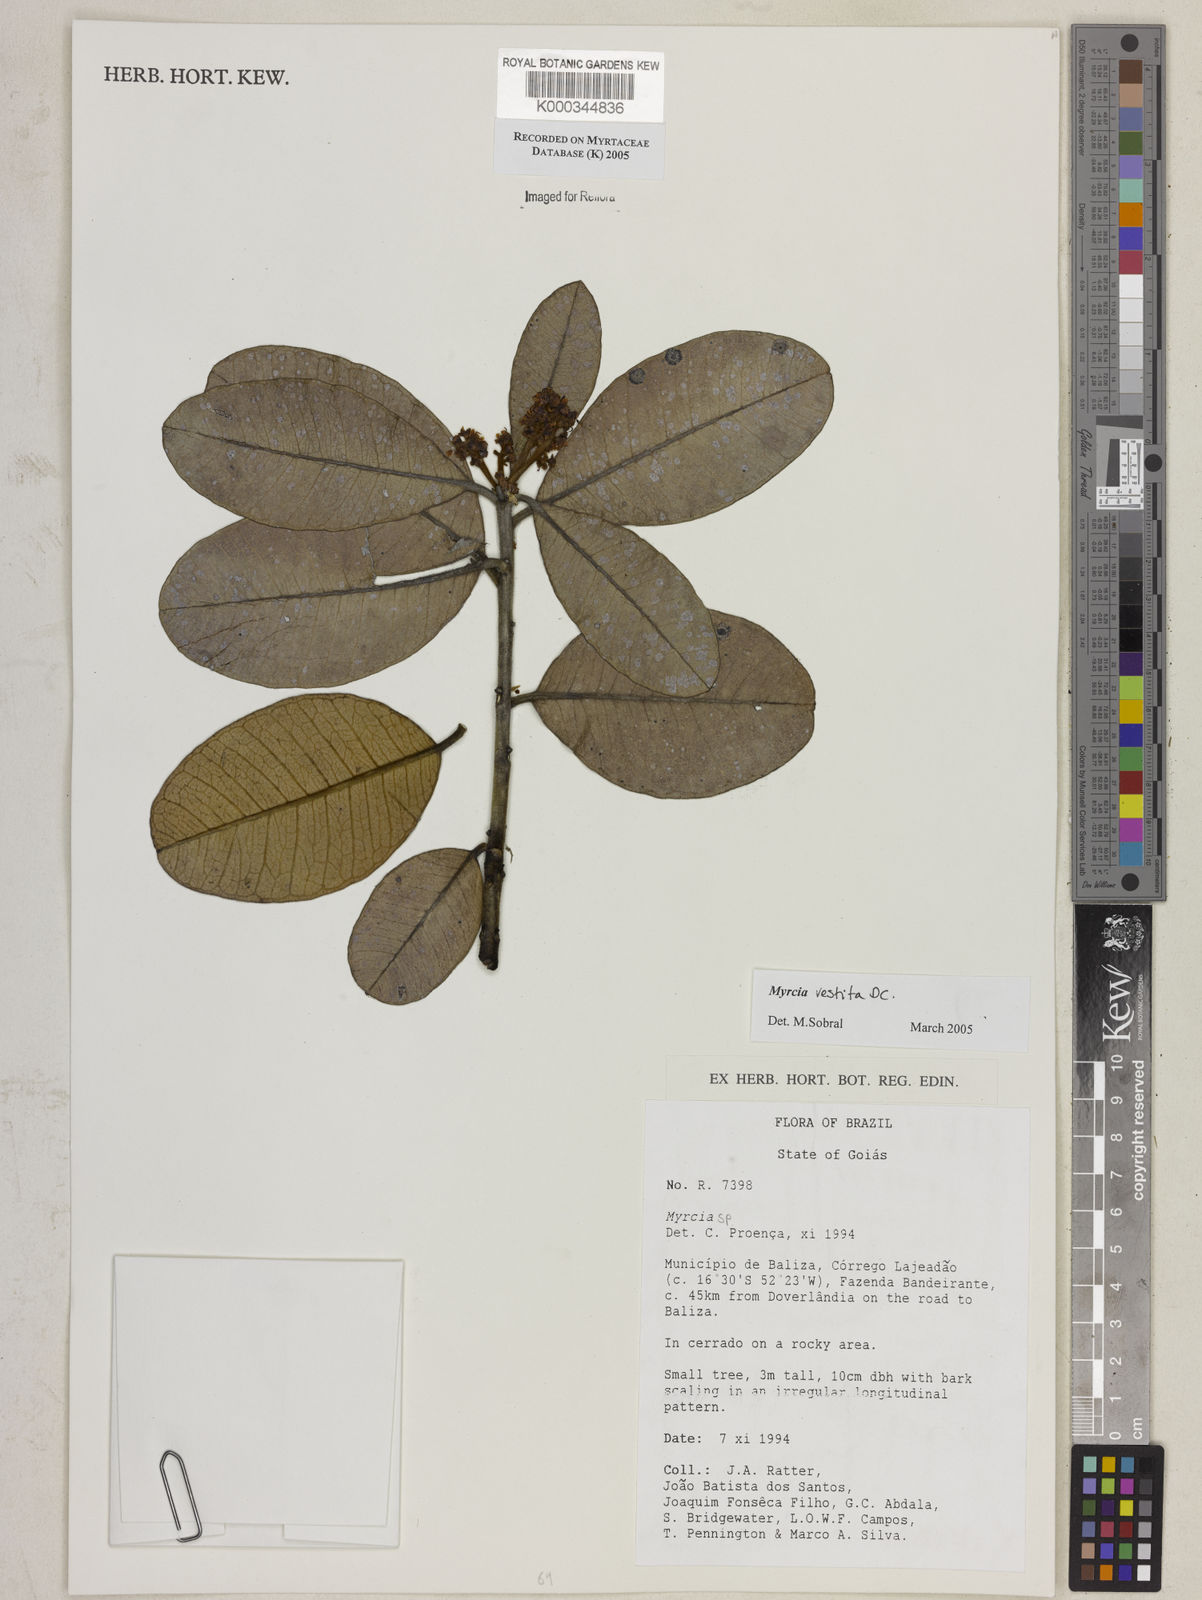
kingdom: Plantae
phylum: Tracheophyta
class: Magnoliopsida
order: Myrtales
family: Myrtaceae
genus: Myrcia
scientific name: Myrcia vestita
